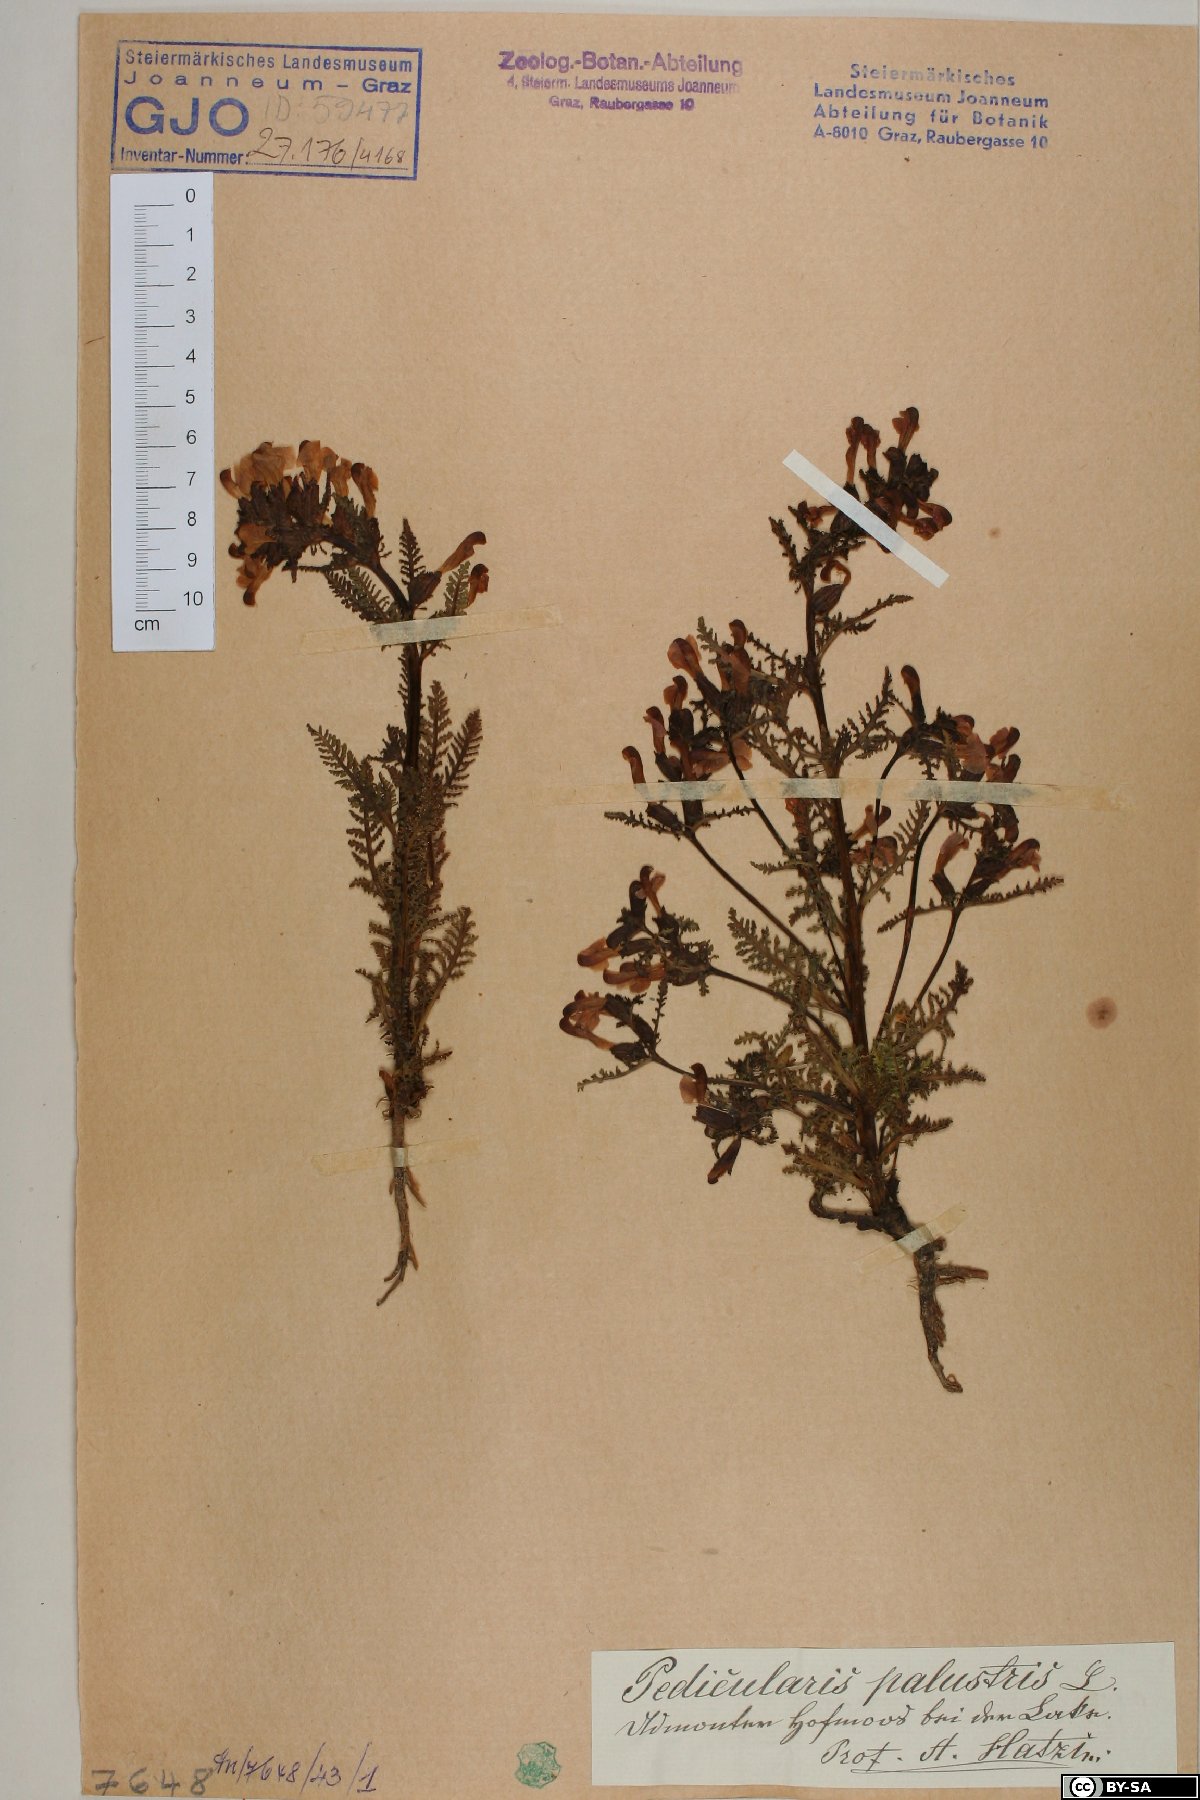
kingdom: Plantae
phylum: Tracheophyta
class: Magnoliopsida
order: Lamiales
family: Orobanchaceae
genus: Pedicularis
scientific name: Pedicularis palustris
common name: Marsh lousewort
